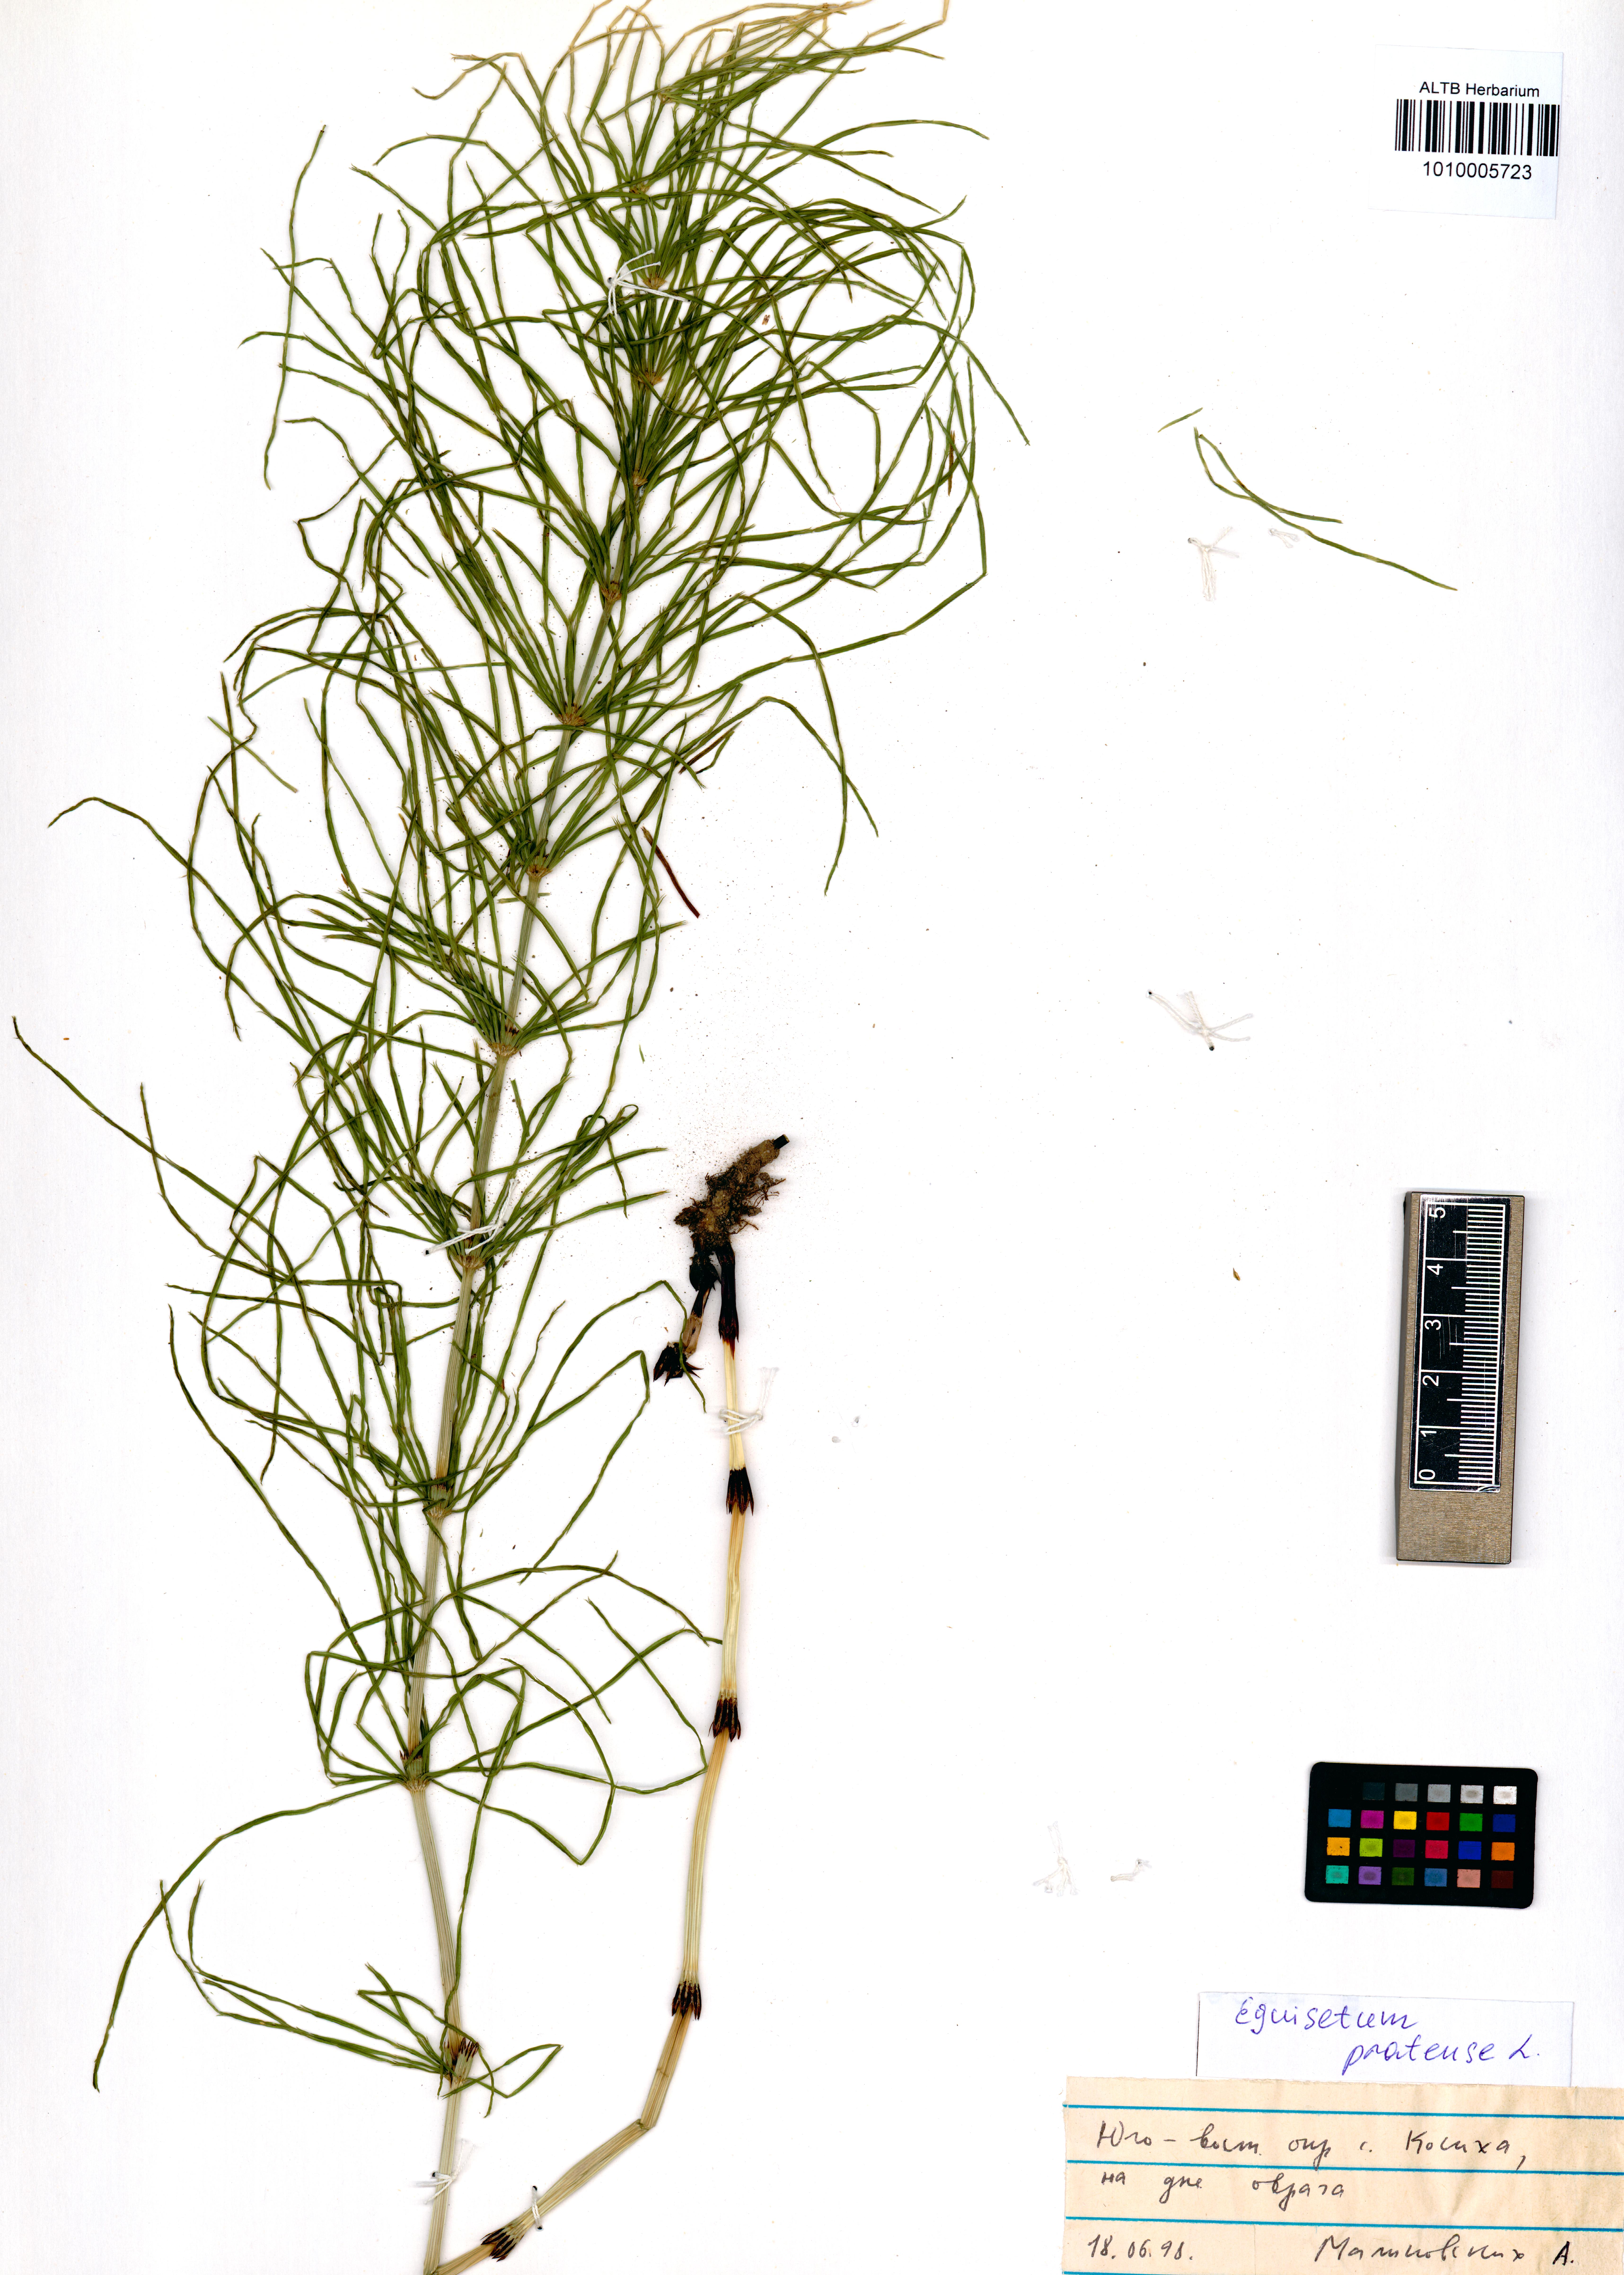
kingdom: Plantae
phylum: Tracheophyta
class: Polypodiopsida
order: Equisetales
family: Equisetaceae
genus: Equisetum
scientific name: Equisetum pratense
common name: Meadow horsetail
